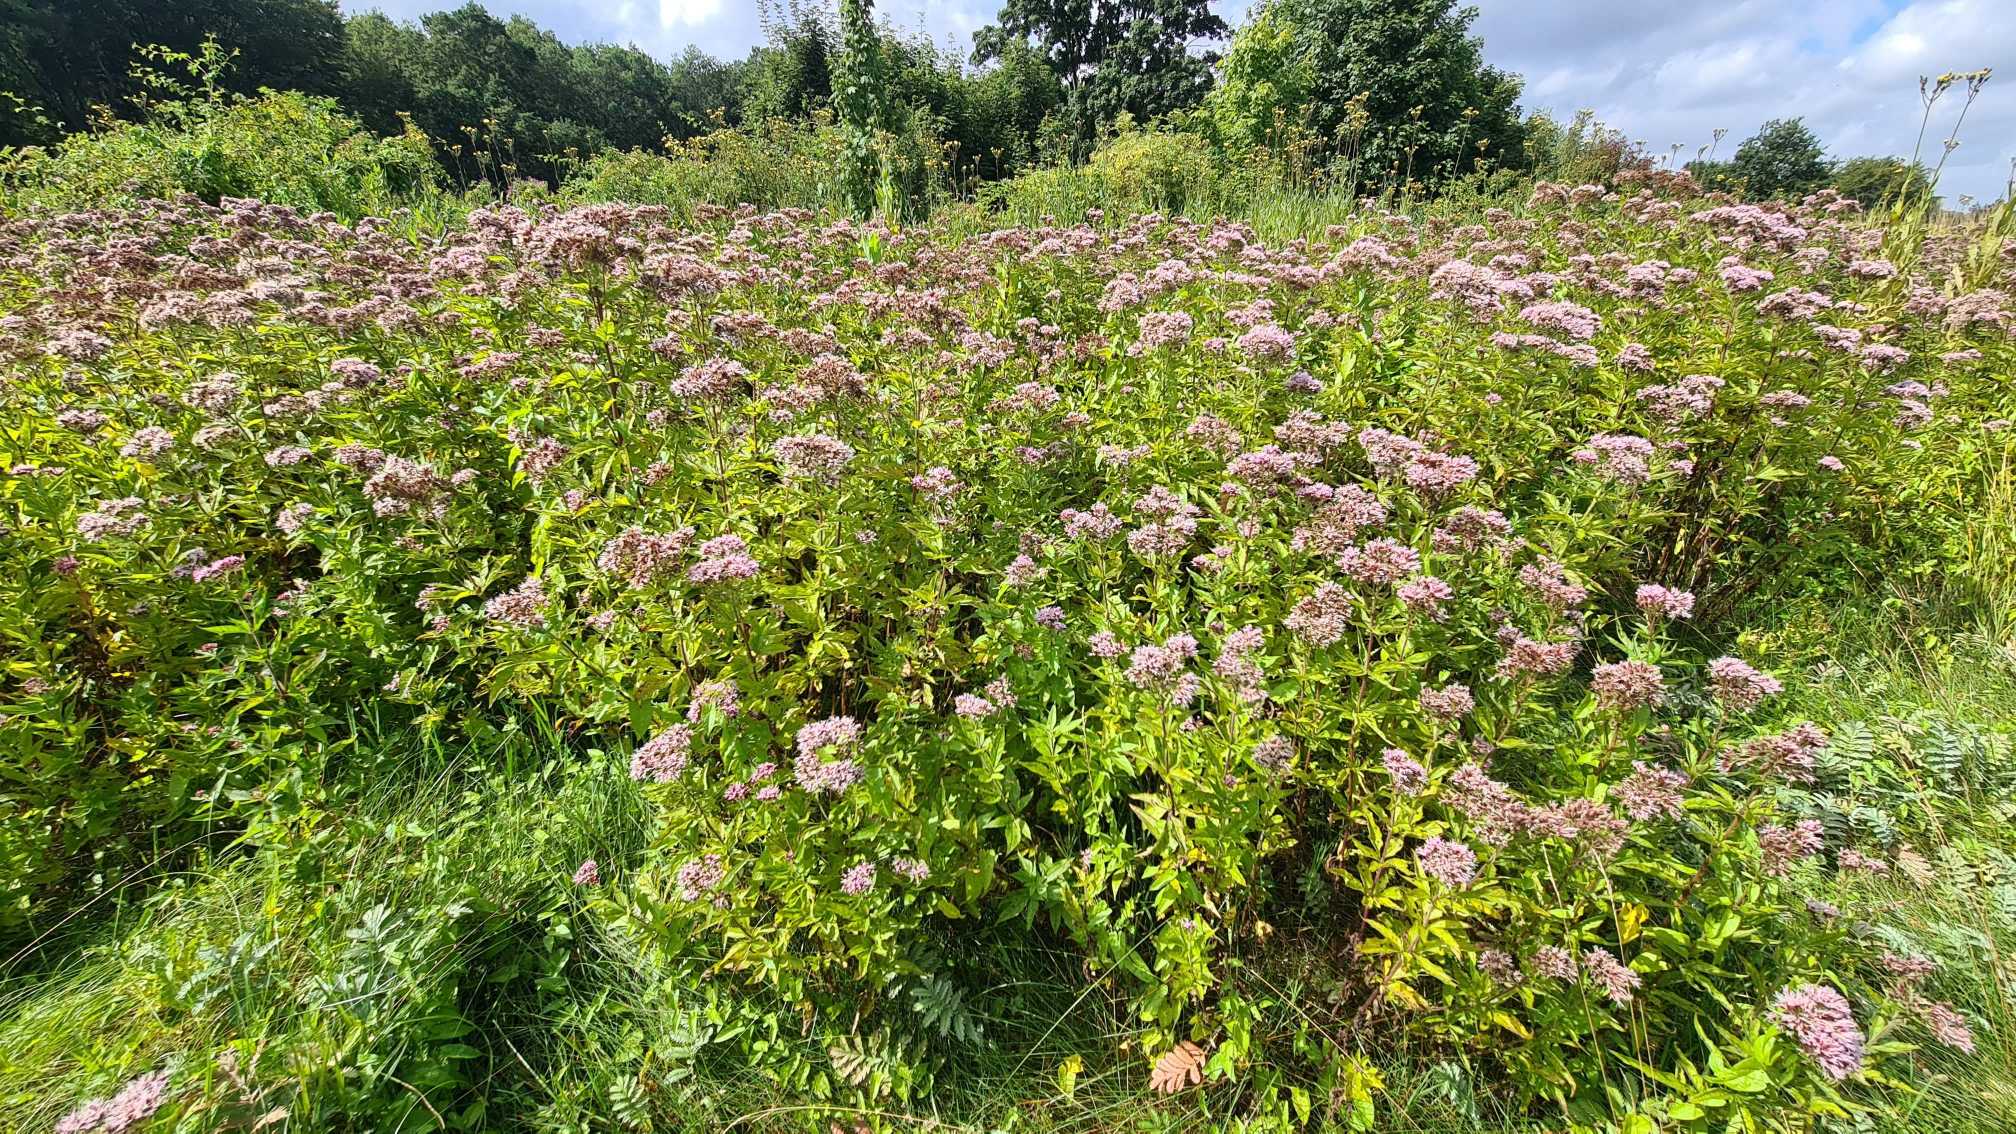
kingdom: Plantae
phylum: Tracheophyta
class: Magnoliopsida
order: Asterales
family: Asteraceae
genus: Eupatorium
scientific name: Eupatorium cannabinum
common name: Hjortetrøst
